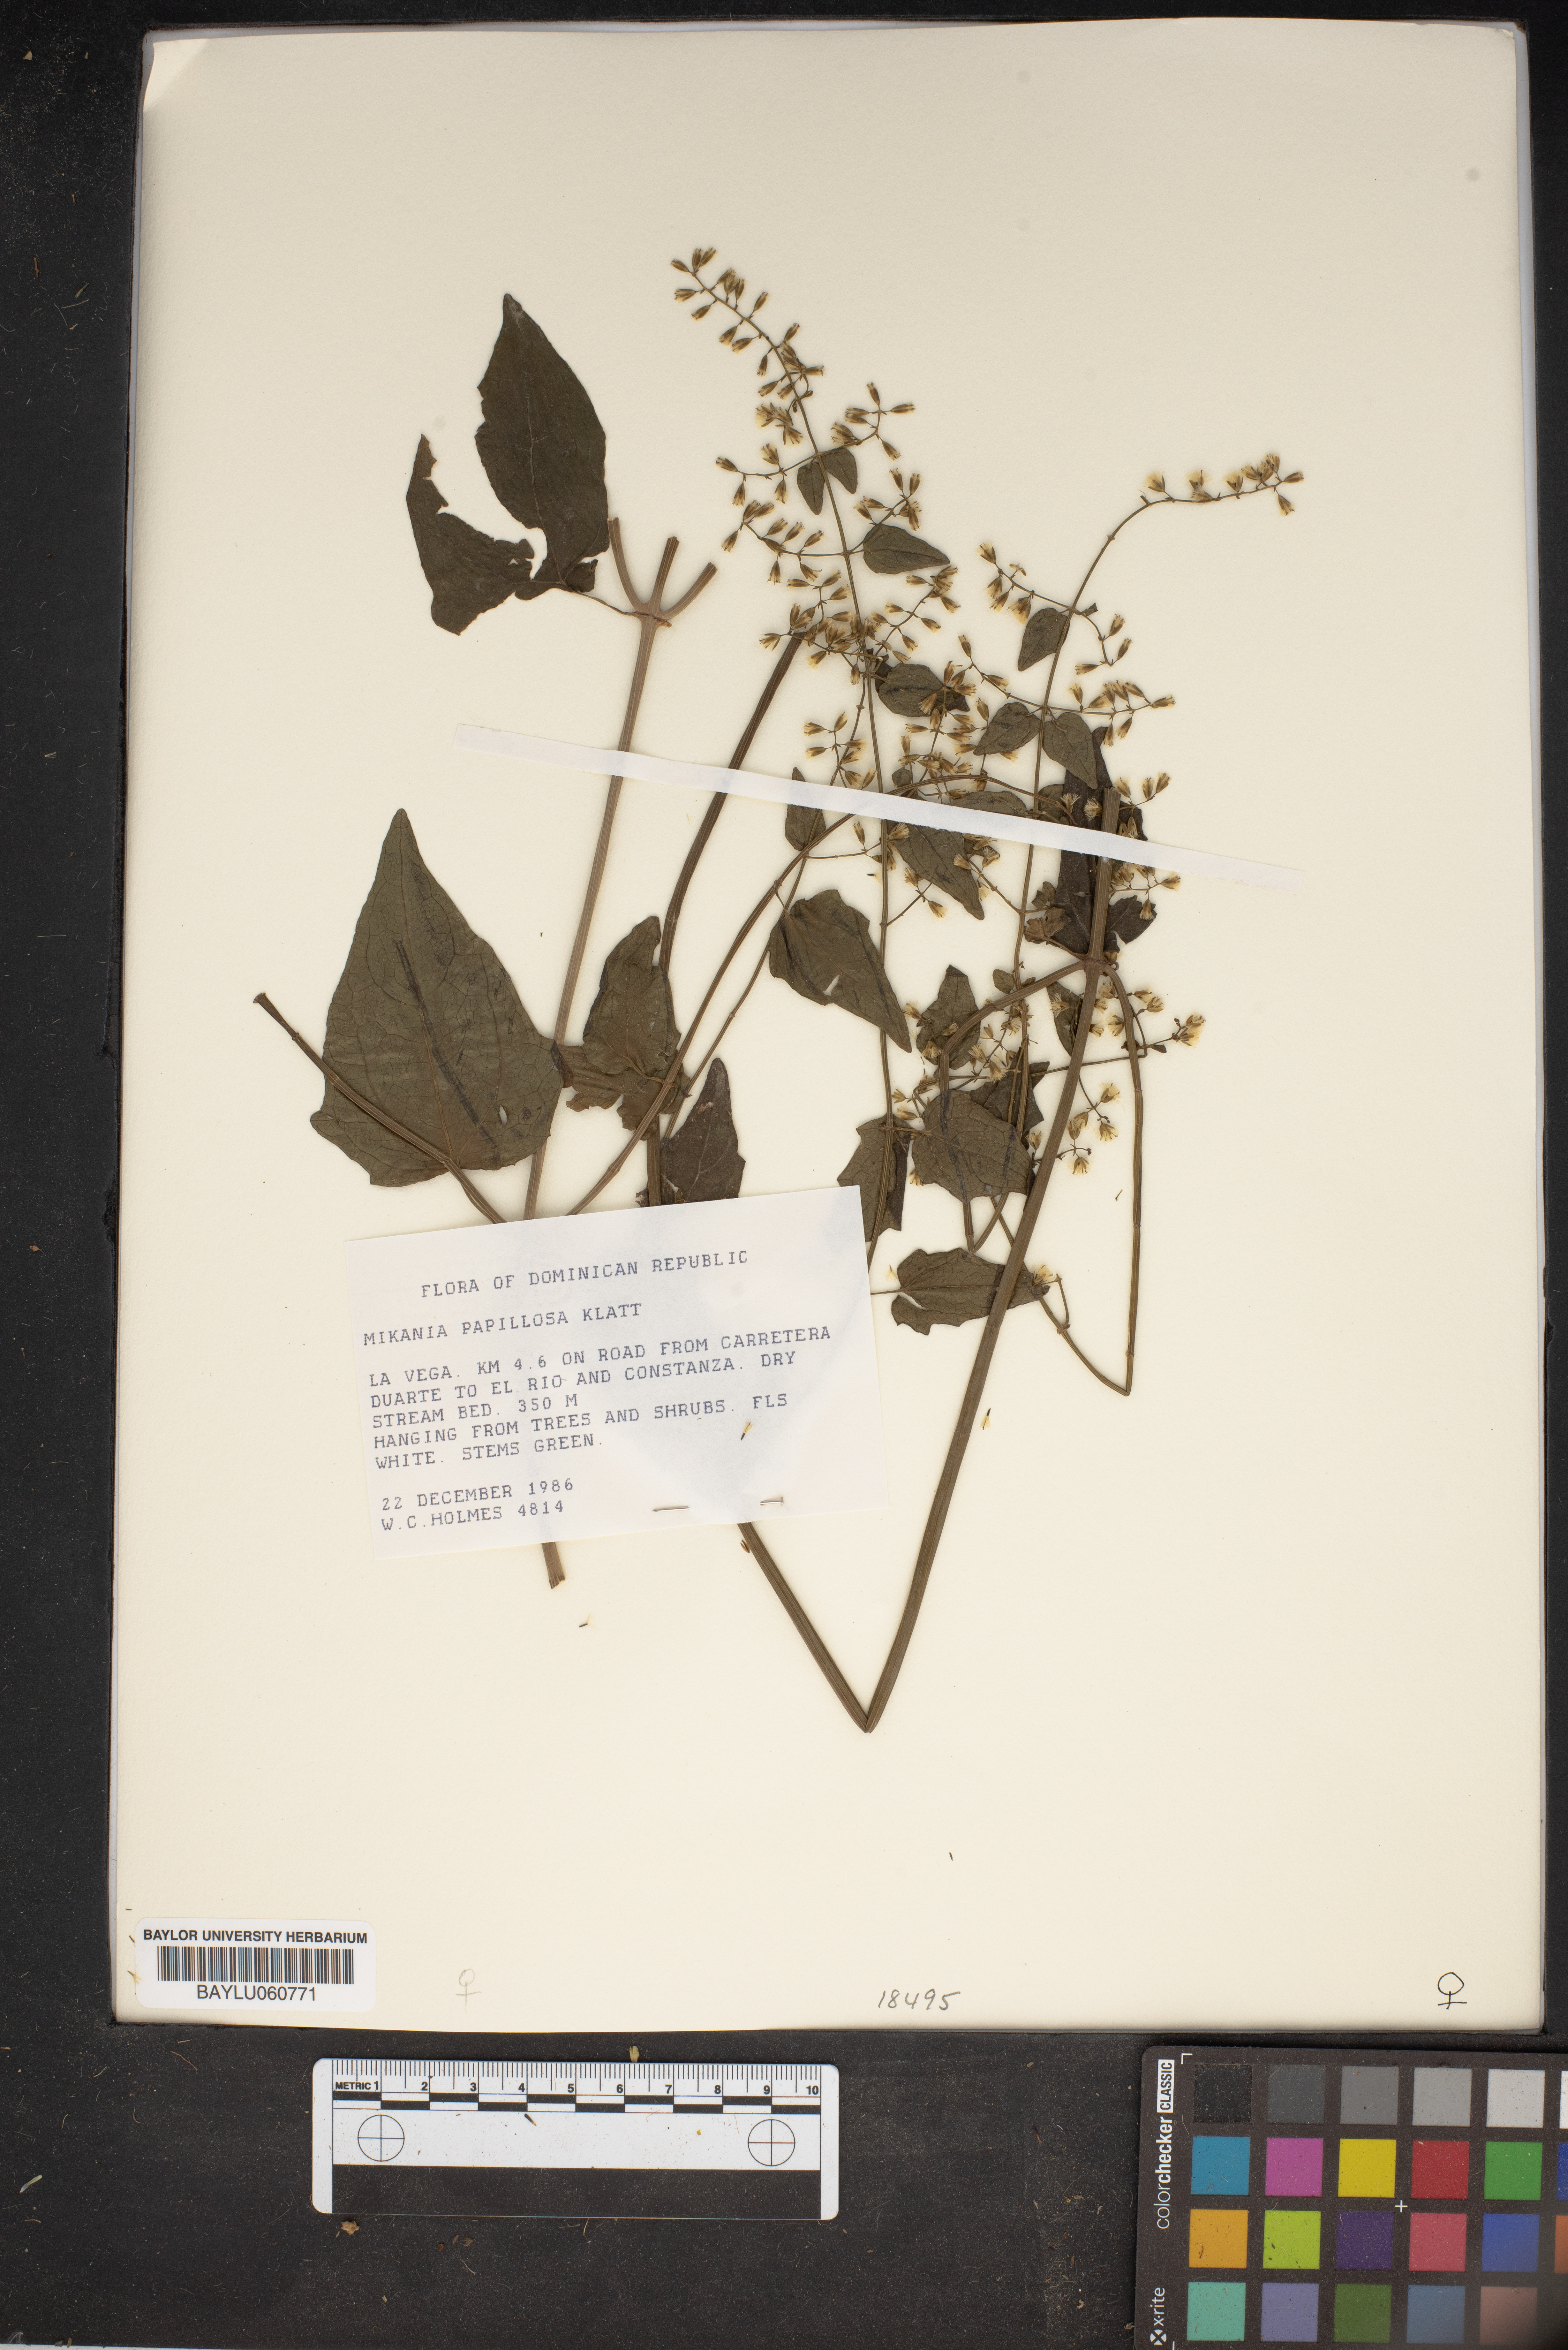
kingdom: Plantae
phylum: Tracheophyta
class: Magnoliopsida
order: Asterales
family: Asteraceae
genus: Mikania
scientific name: Mikania papillosa
